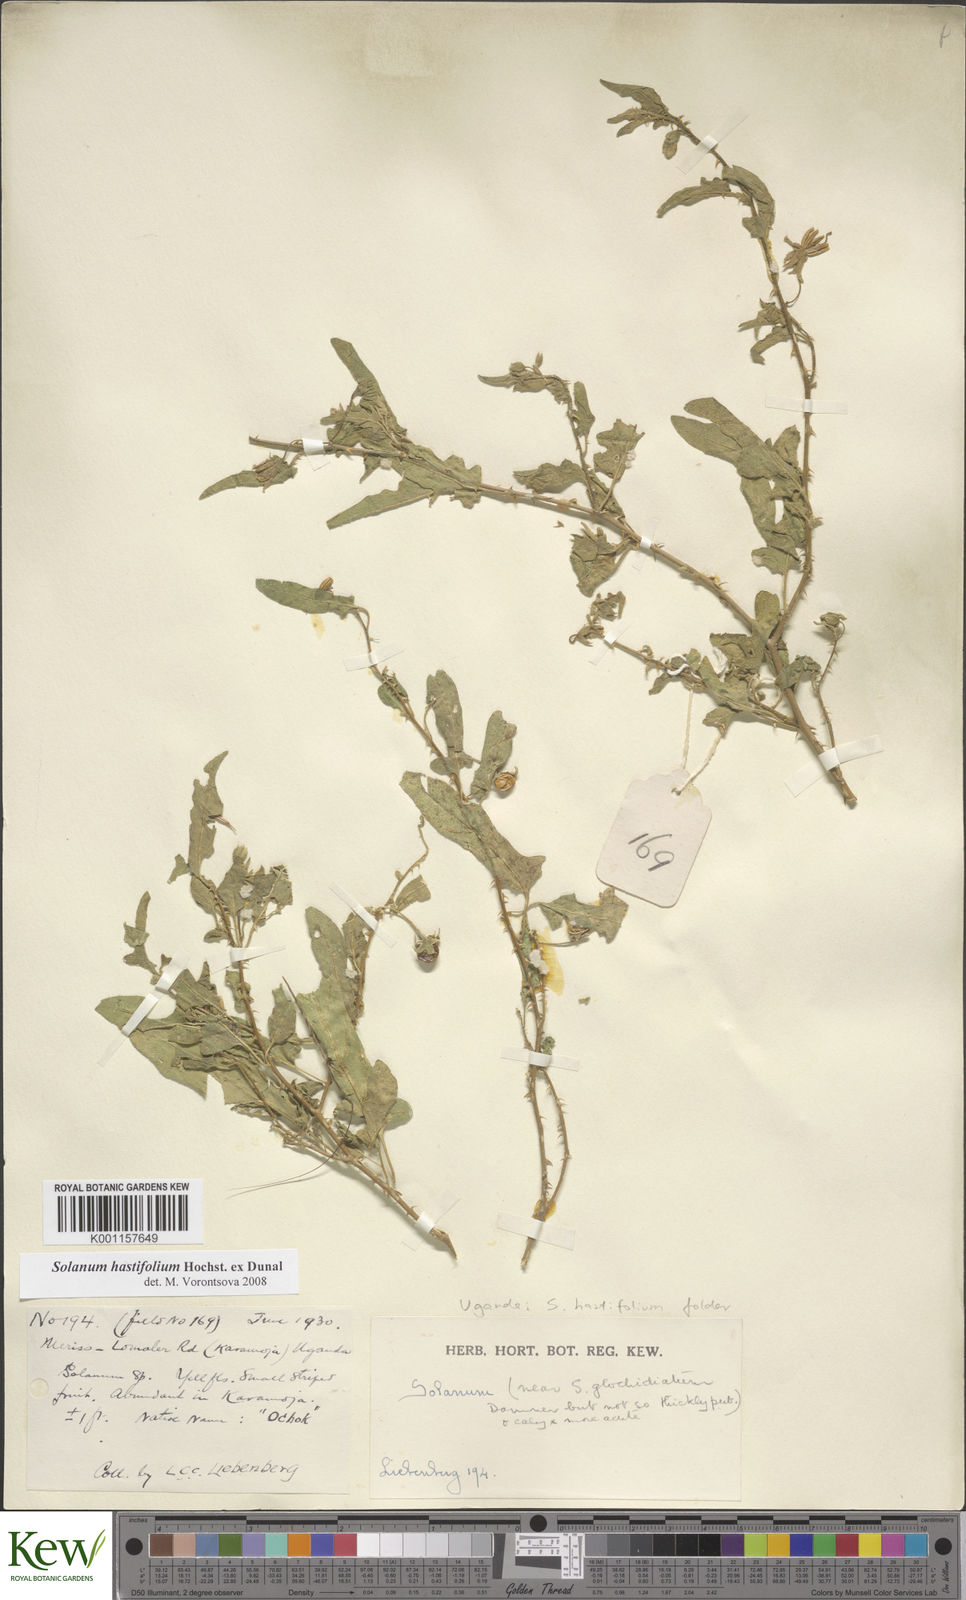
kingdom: Plantae
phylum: Tracheophyta
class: Magnoliopsida
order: Solanales
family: Solanaceae
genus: Solanum
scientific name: Solanum hastifolium
